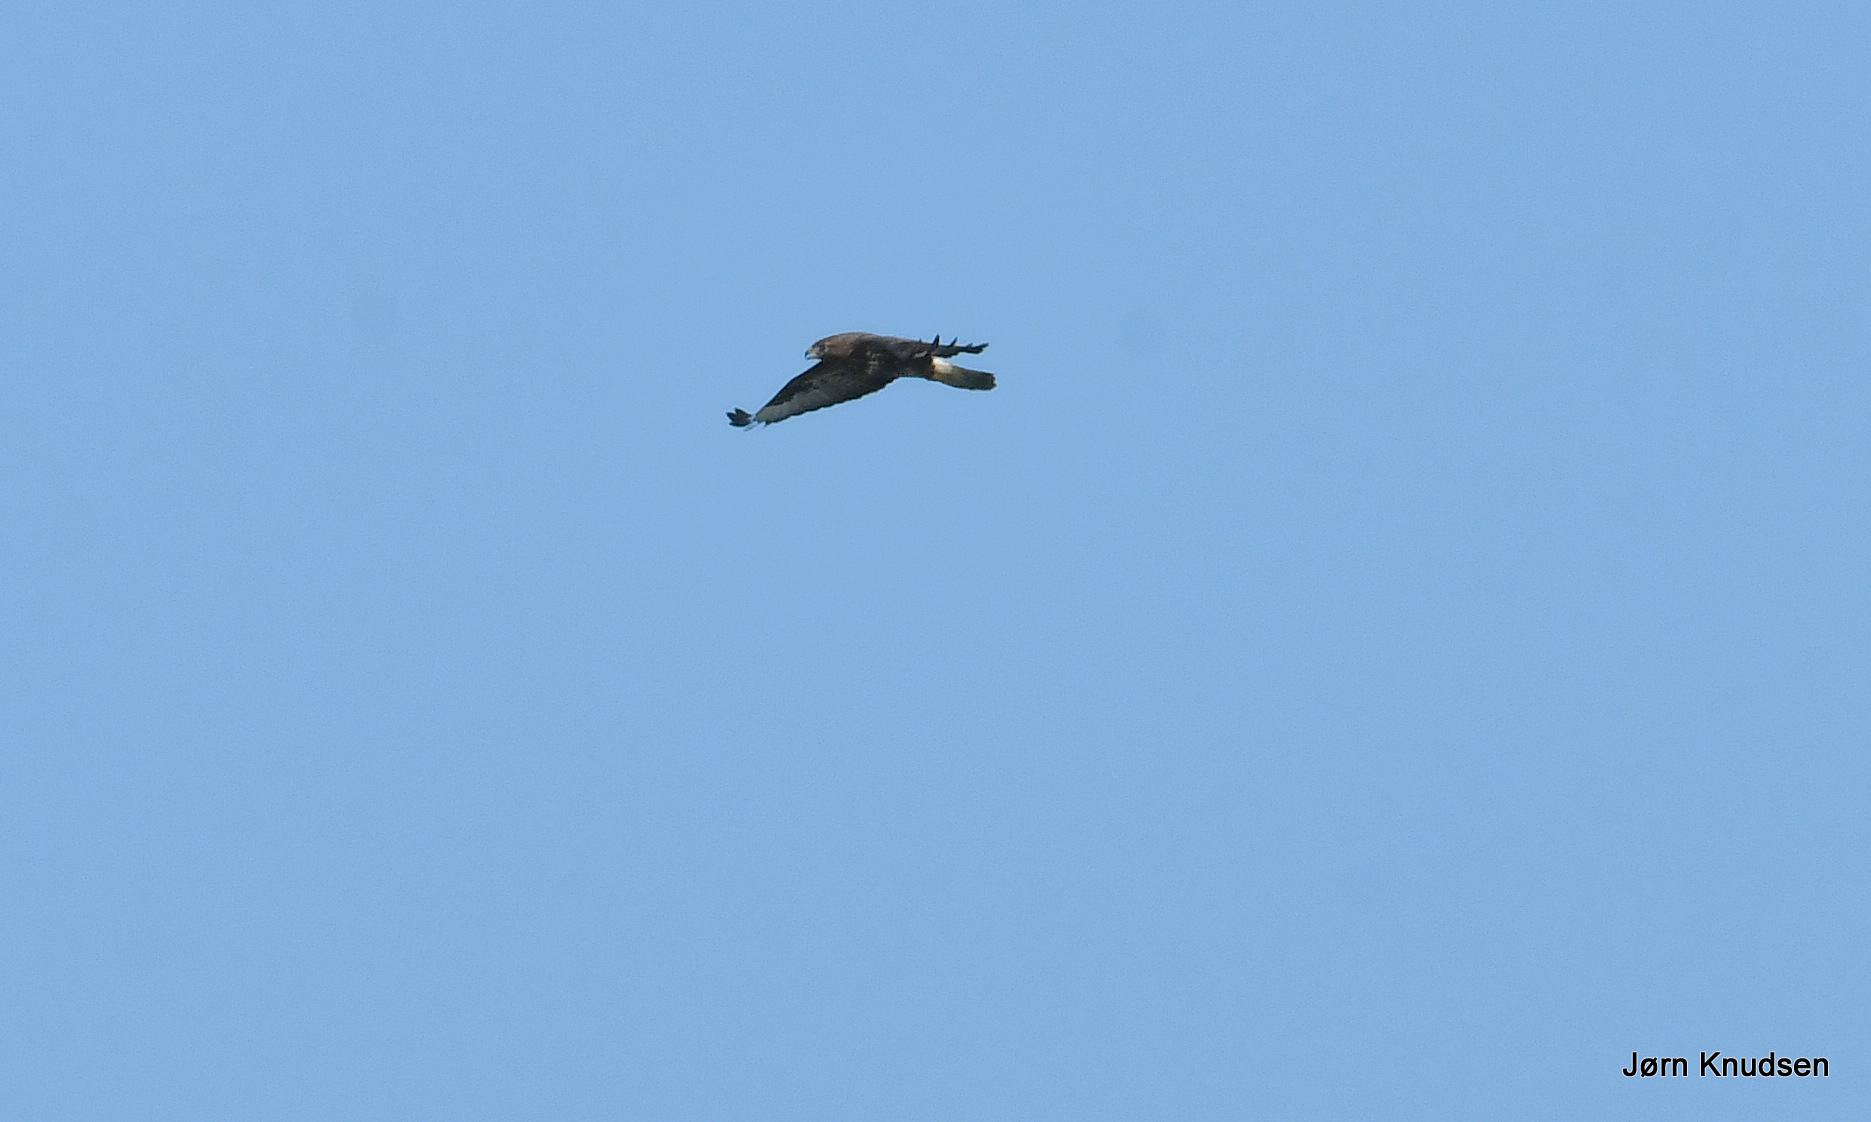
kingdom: Animalia
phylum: Chordata
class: Aves
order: Accipitriformes
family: Accipitridae
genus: Buteo
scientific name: Buteo buteo
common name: Musvåge
